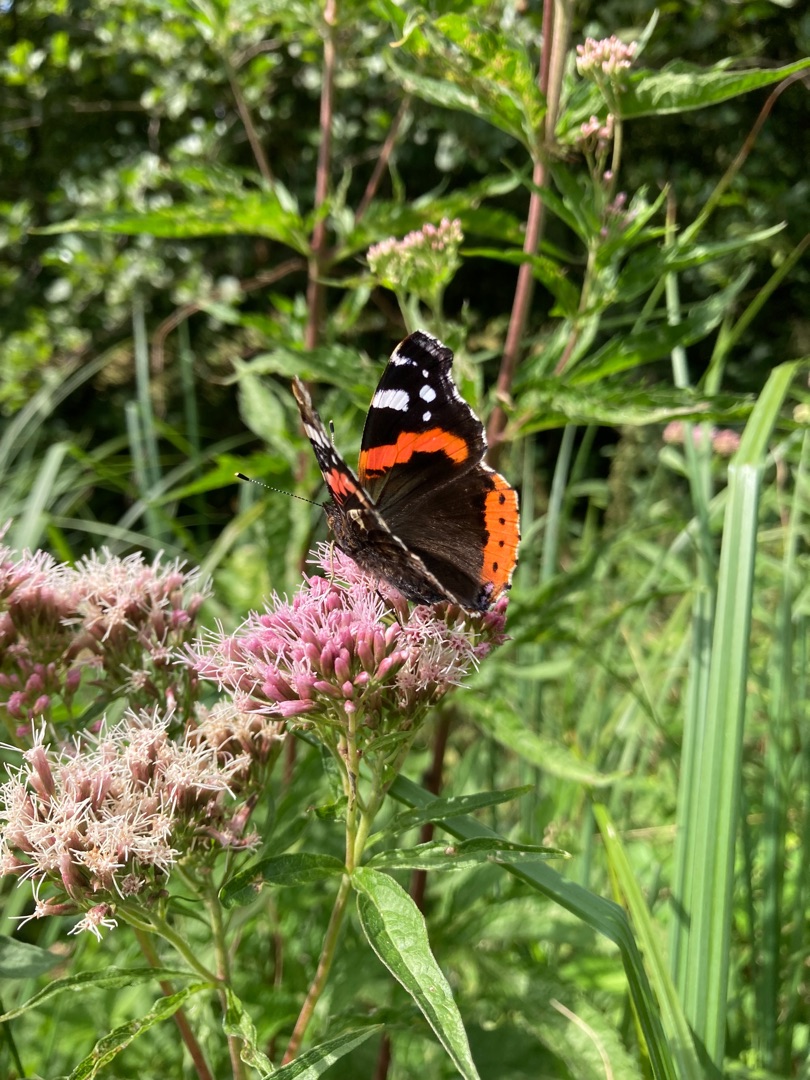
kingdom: Animalia
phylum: Arthropoda
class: Insecta
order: Lepidoptera
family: Nymphalidae
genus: Vanessa
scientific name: Vanessa atalanta
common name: Admiral
